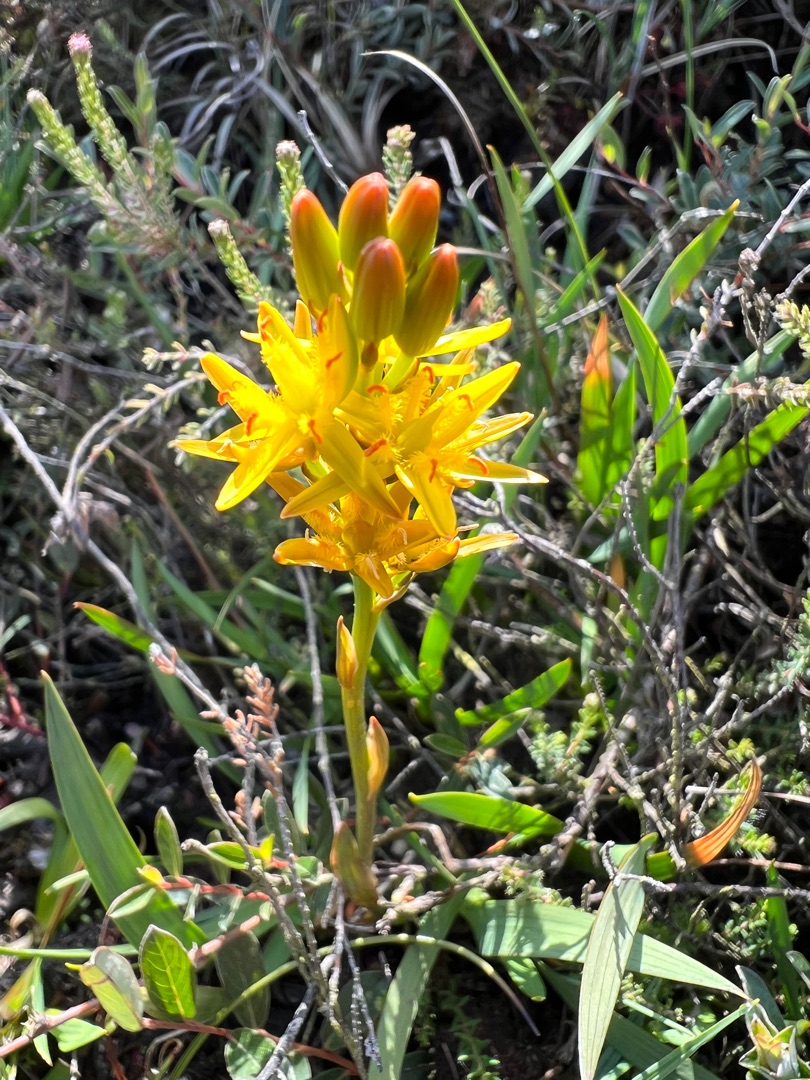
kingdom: Plantae
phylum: Tracheophyta
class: Liliopsida
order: Dioscoreales
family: Nartheciaceae
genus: Narthecium
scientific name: Narthecium ossifragum
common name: Benbræk
